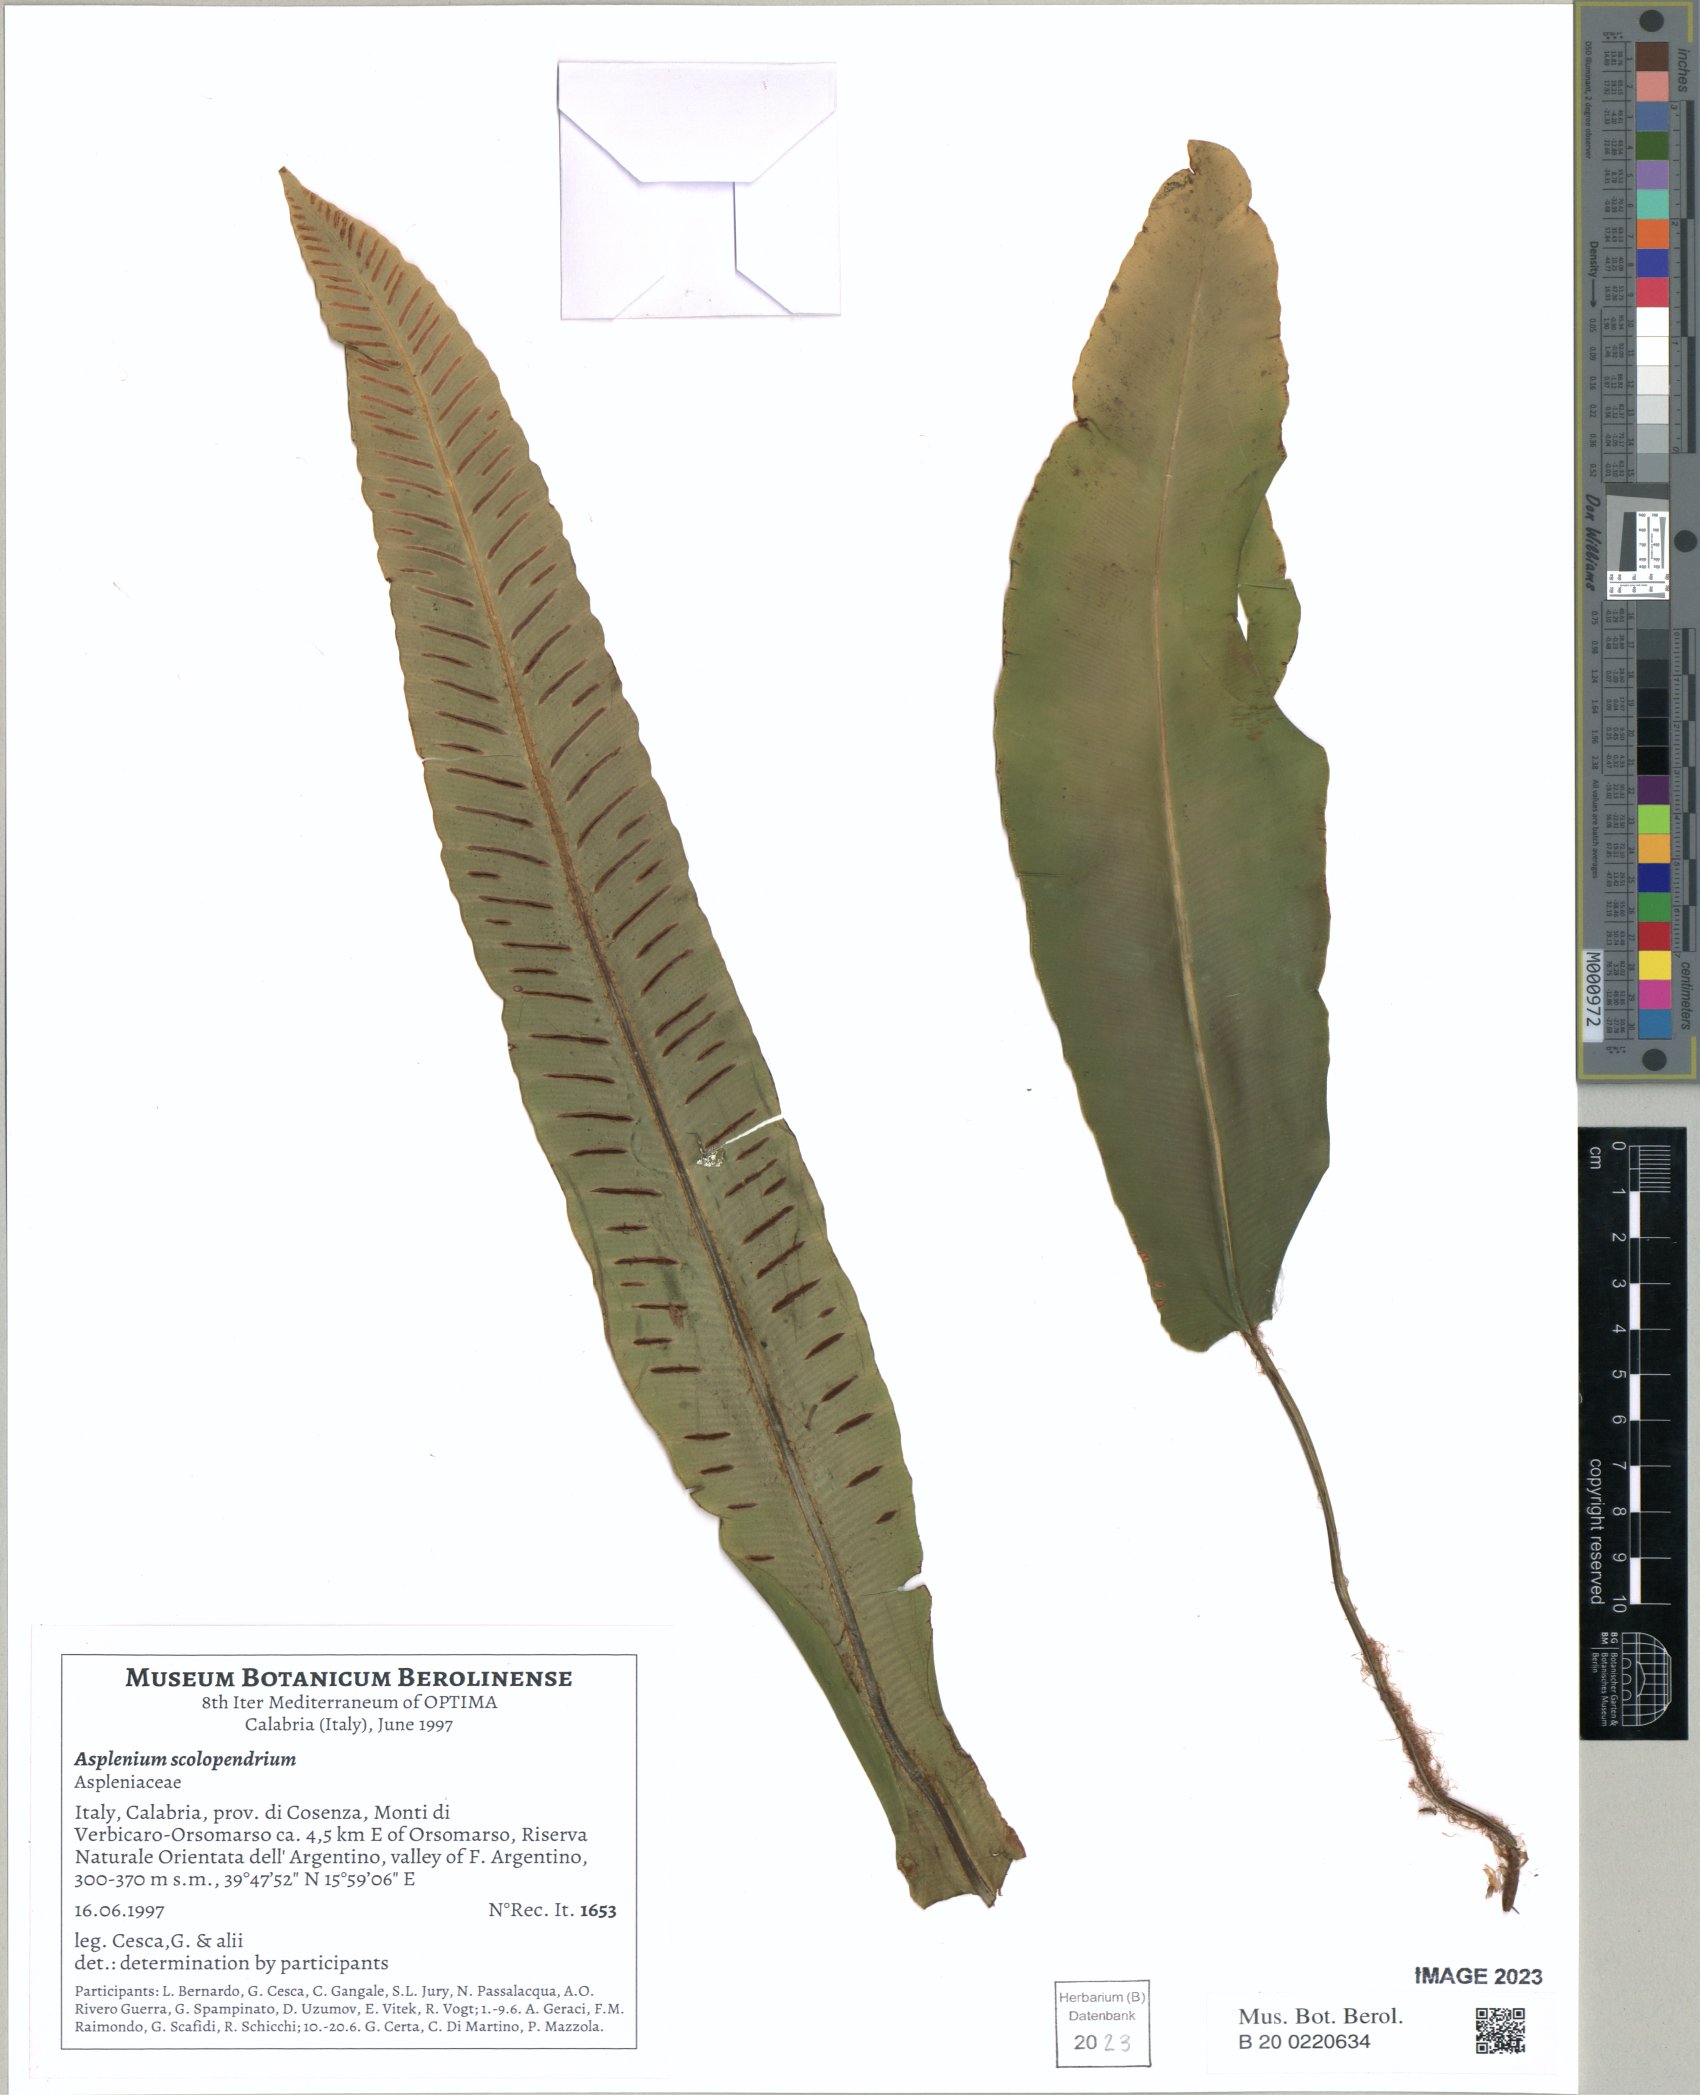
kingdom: Plantae
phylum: Tracheophyta
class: Polypodiopsida
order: Polypodiales
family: Aspleniaceae
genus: Asplenium
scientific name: Asplenium scolopendrium
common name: Hart's-tongue fern
